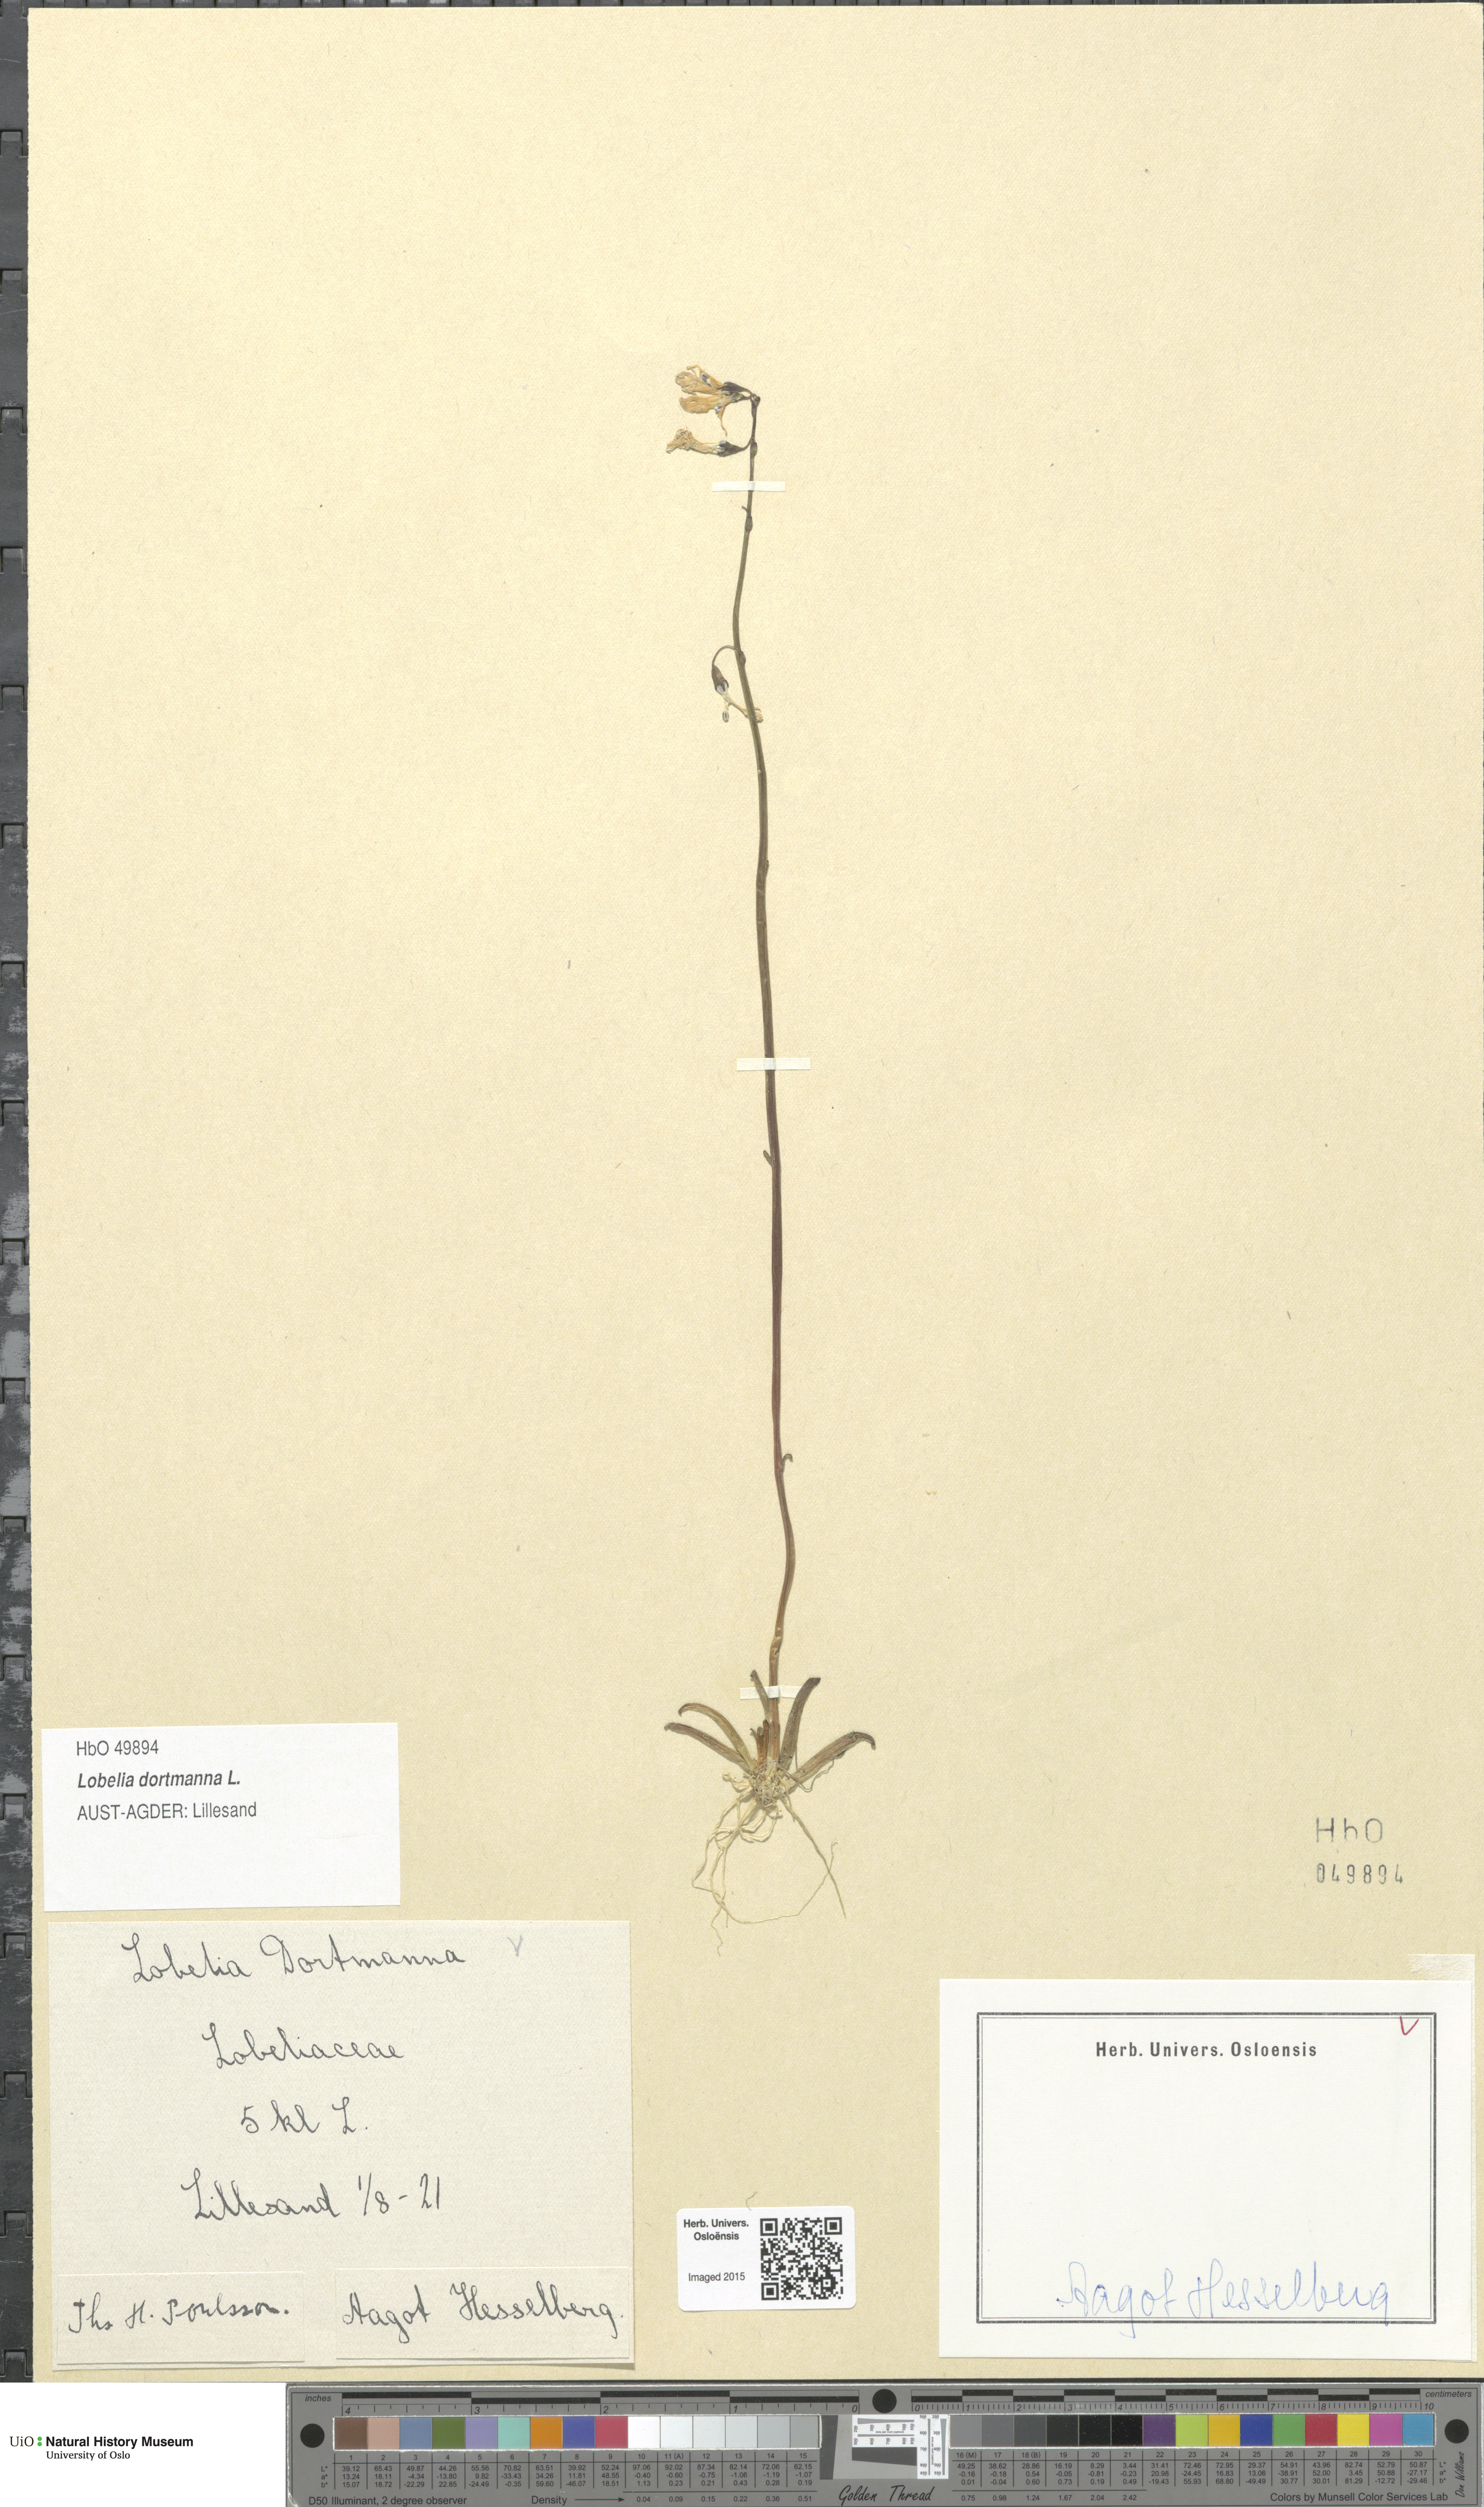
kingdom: Plantae
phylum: Tracheophyta
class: Magnoliopsida
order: Asterales
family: Campanulaceae
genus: Lobelia
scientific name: Lobelia dortmanna
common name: Water lobelia
